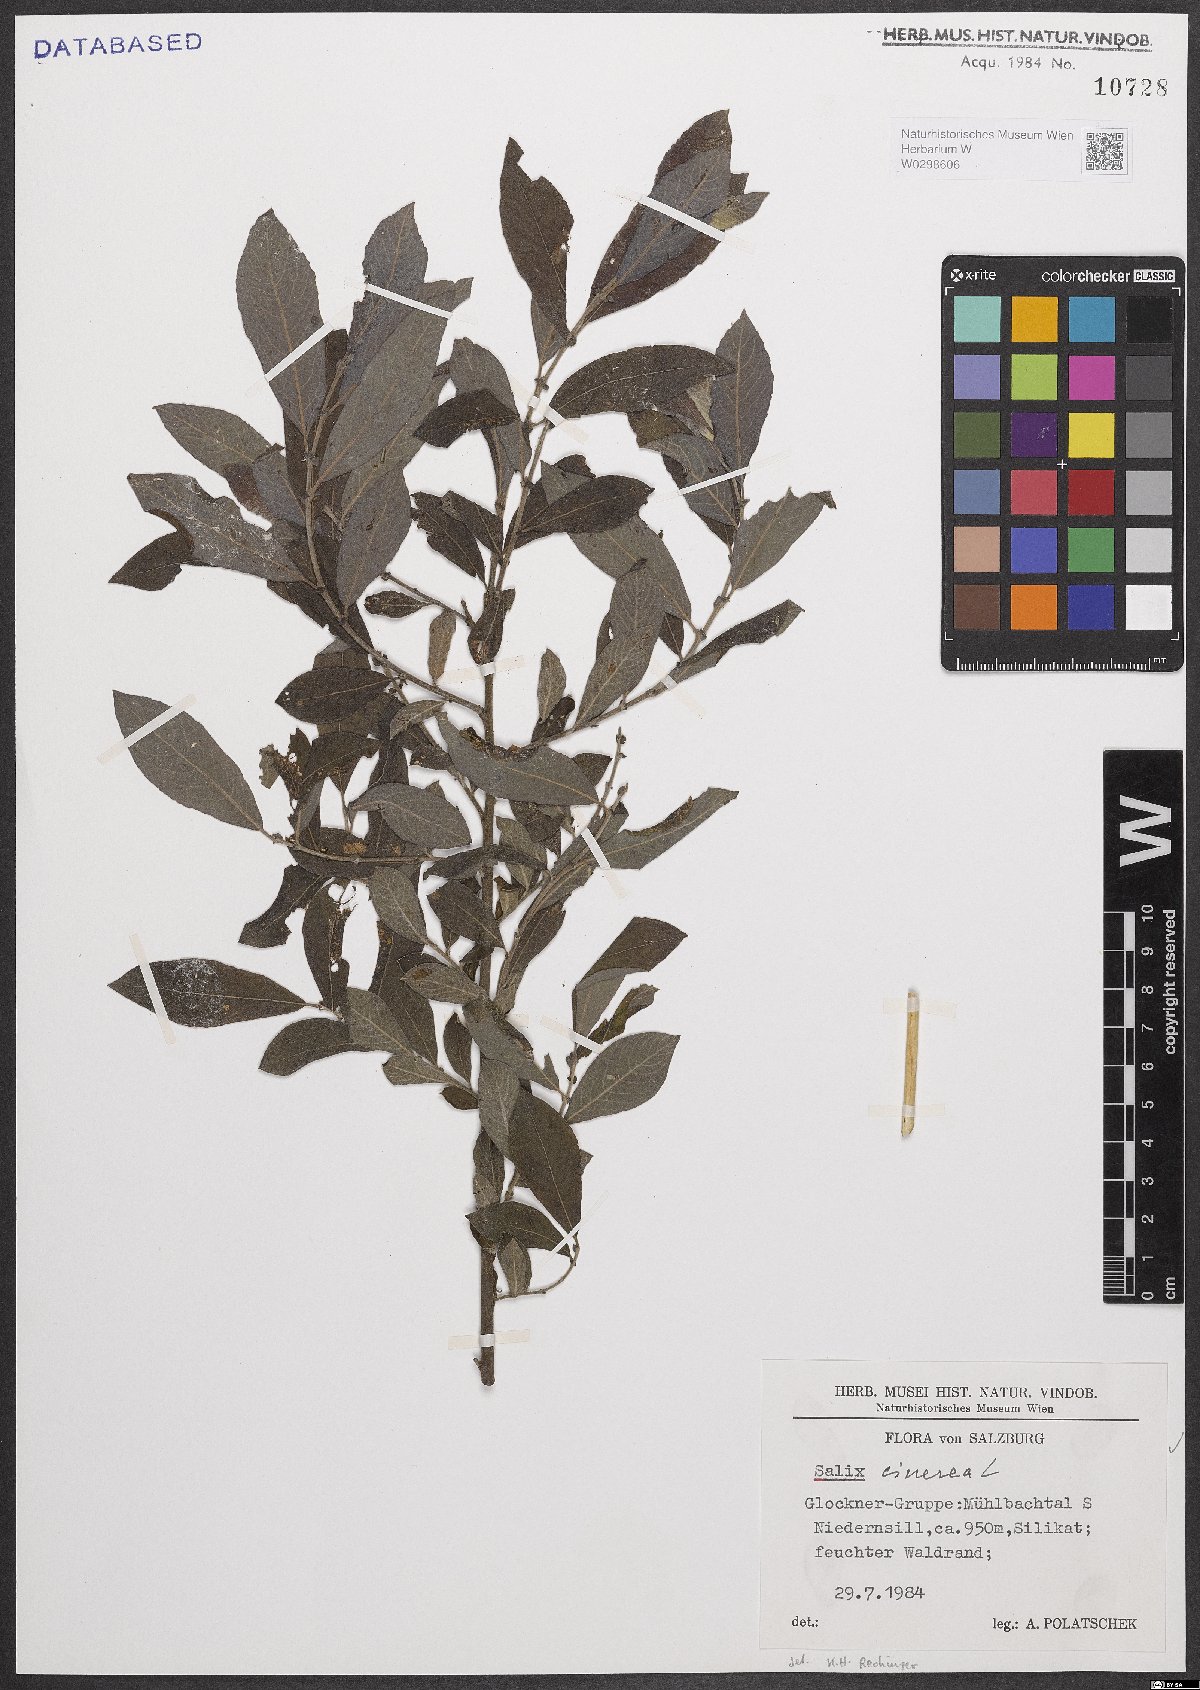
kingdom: Plantae
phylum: Tracheophyta
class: Magnoliopsida
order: Malpighiales
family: Salicaceae
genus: Salix
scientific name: Salix cinerea
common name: Common sallow
